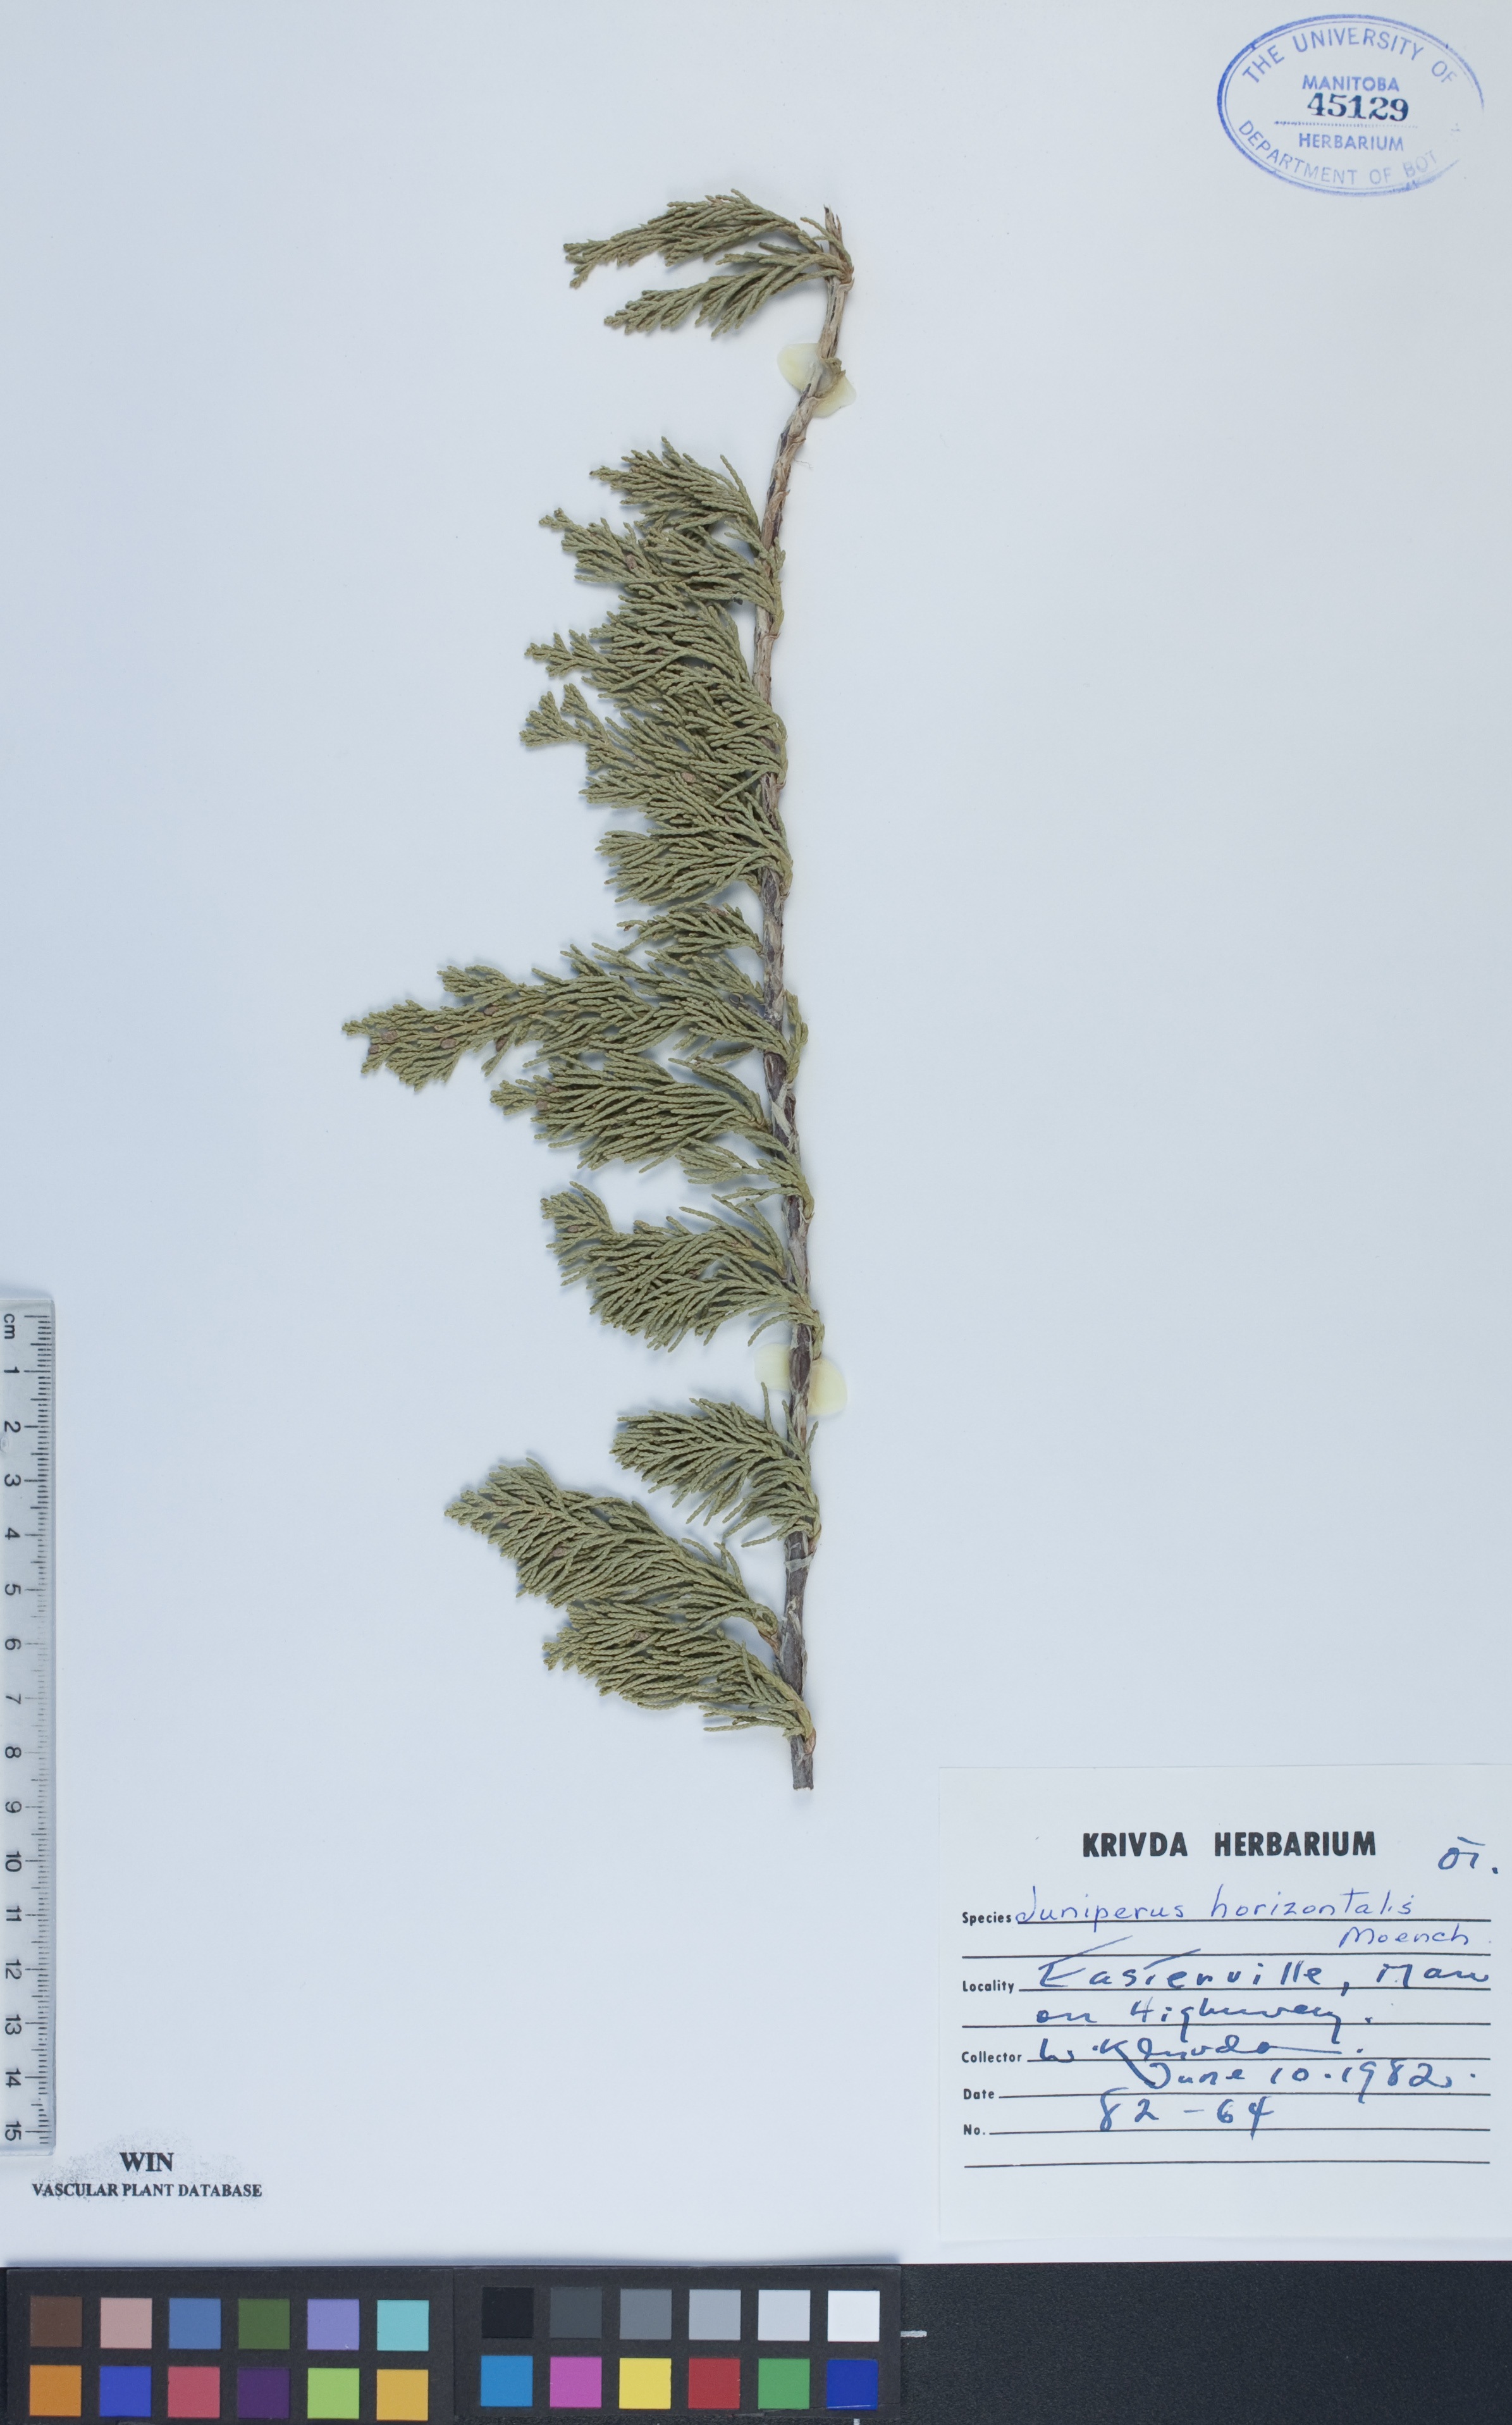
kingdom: Plantae
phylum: Tracheophyta
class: Pinopsida
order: Pinales
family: Cupressaceae
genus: Juniperus
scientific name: Juniperus horizontalis
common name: Creeping juniper
